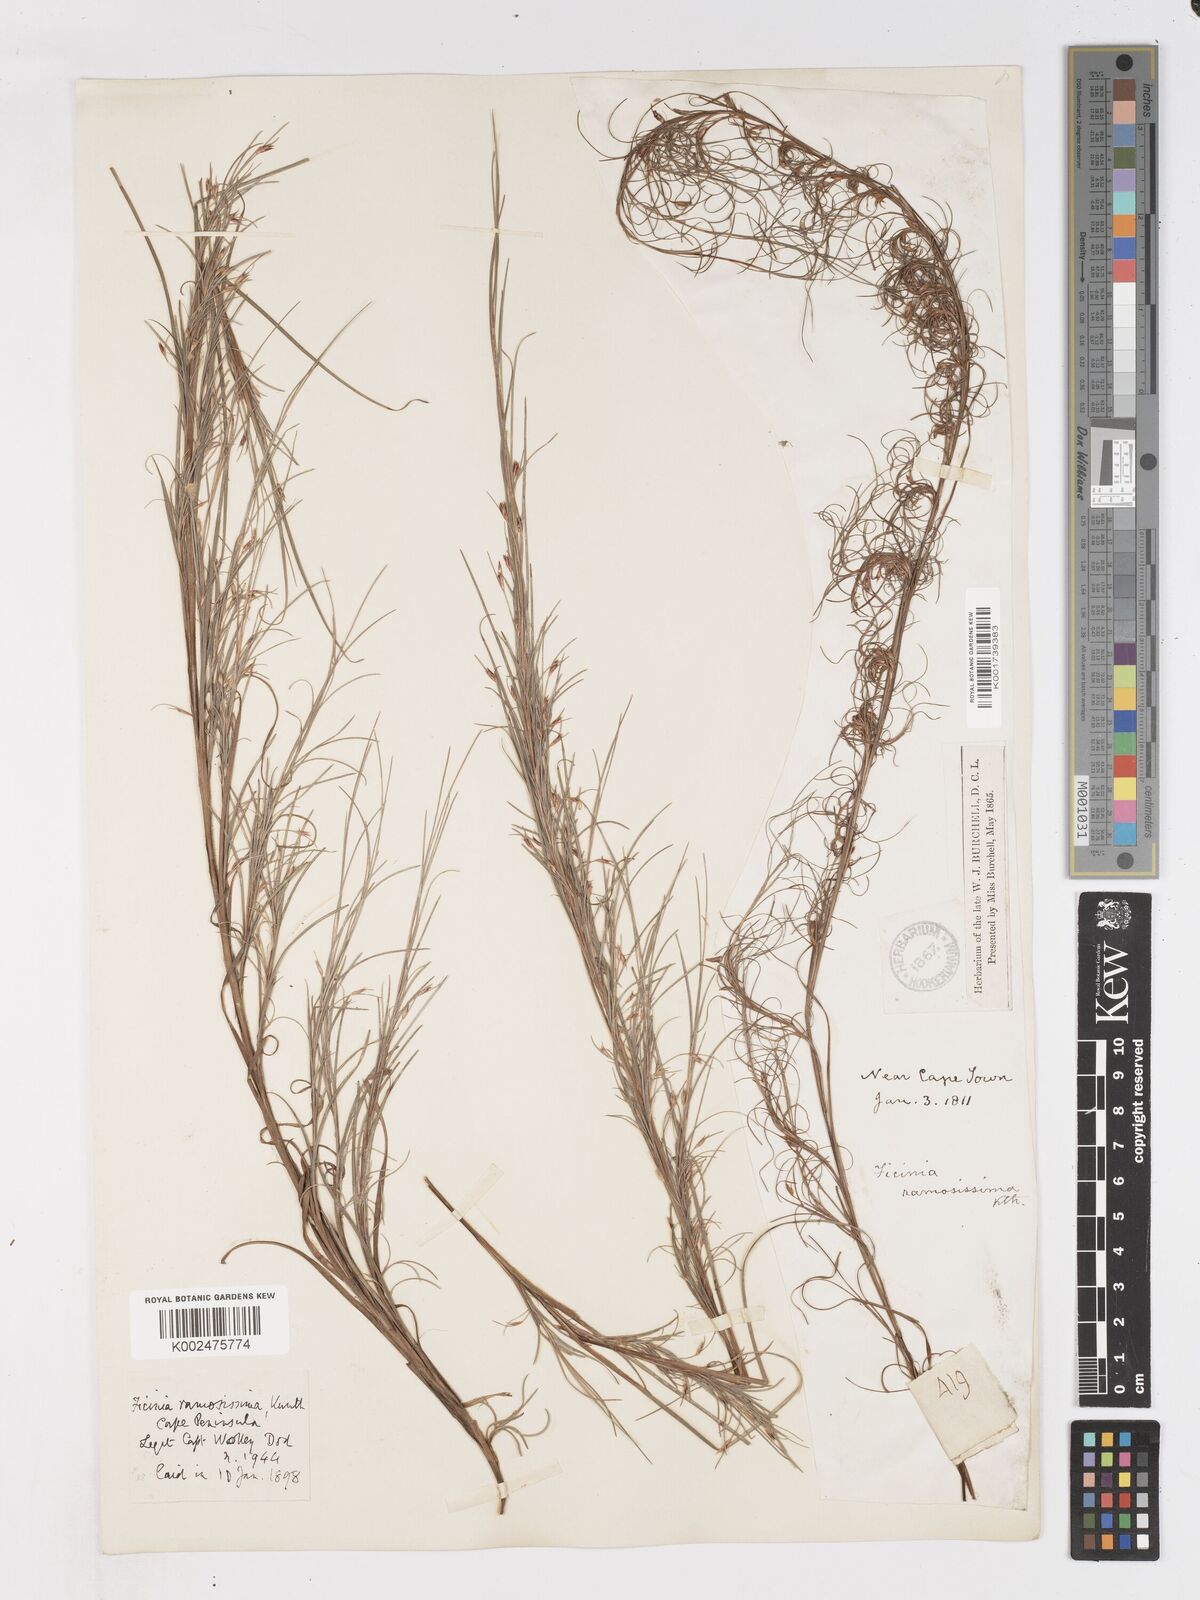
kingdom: Plantae
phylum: Tracheophyta
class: Liliopsida
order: Poales
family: Cyperaceae
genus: Ficinia
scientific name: Ficinia ramosissima
